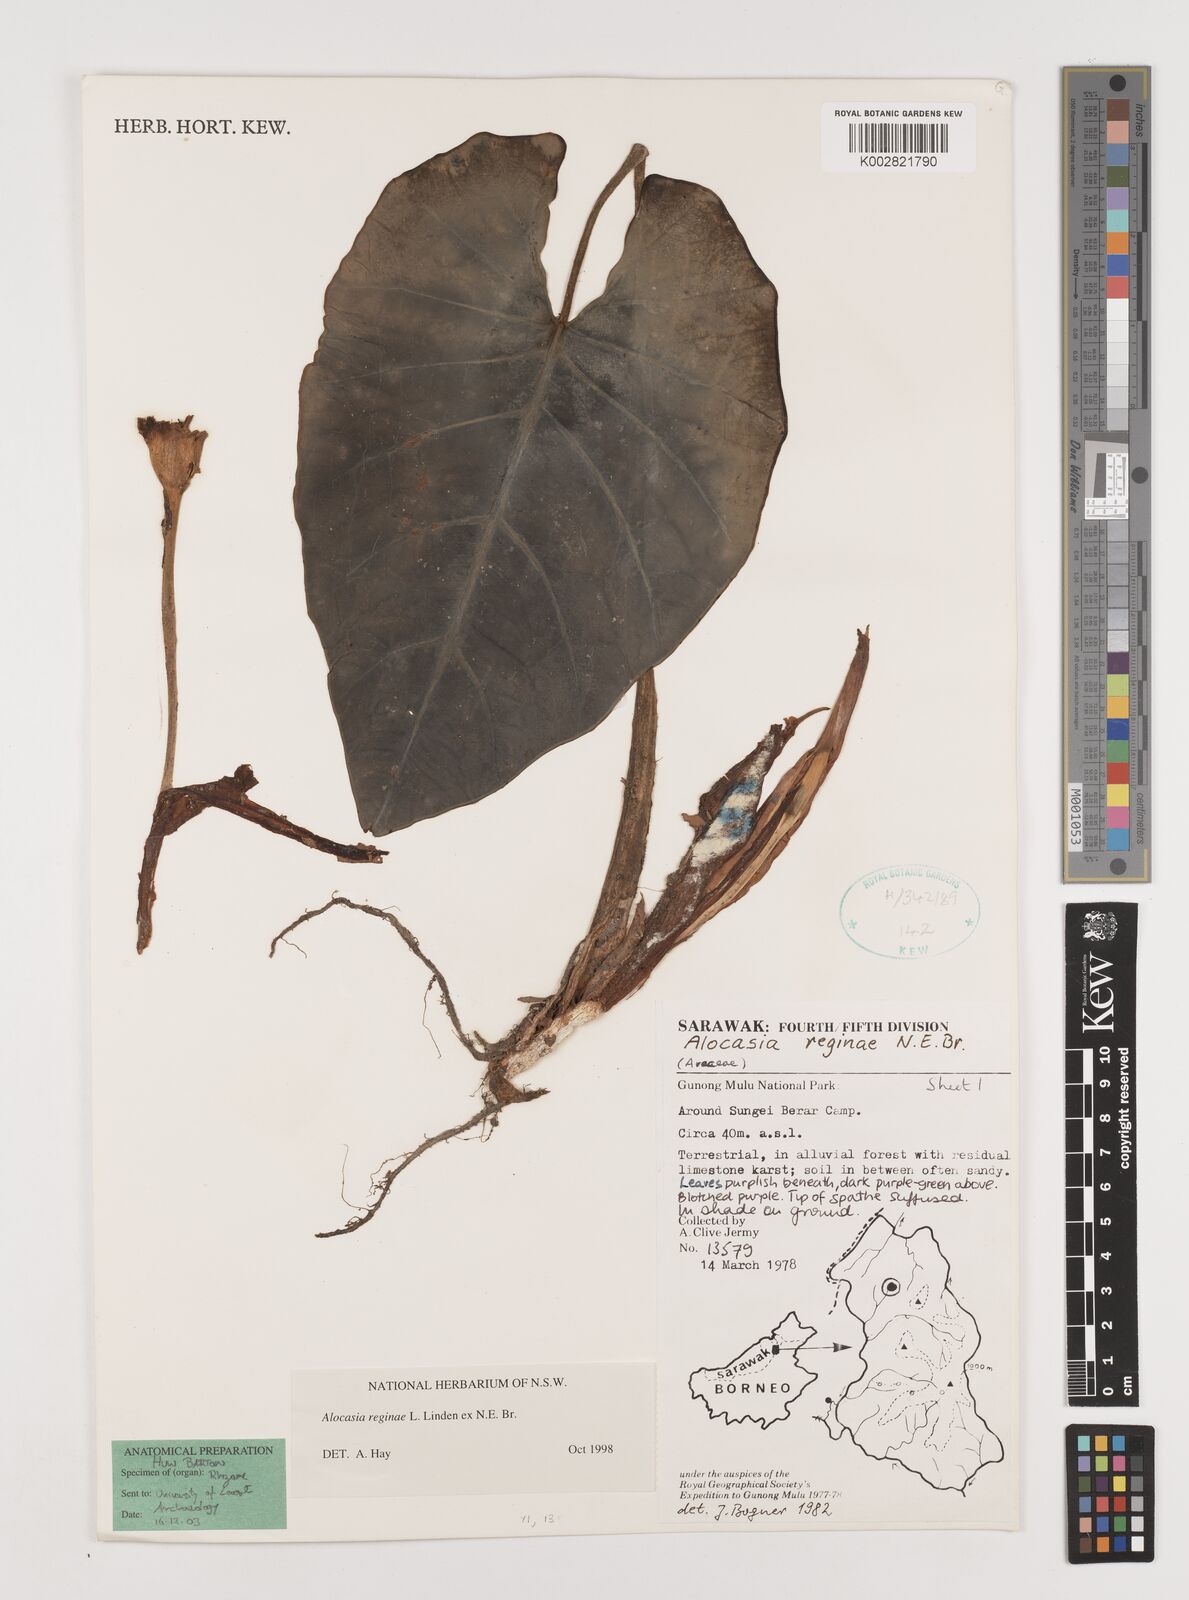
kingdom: Plantae
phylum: Tracheophyta
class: Liliopsida
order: Alismatales
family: Araceae
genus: Alocasia
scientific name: Alocasia reginae
